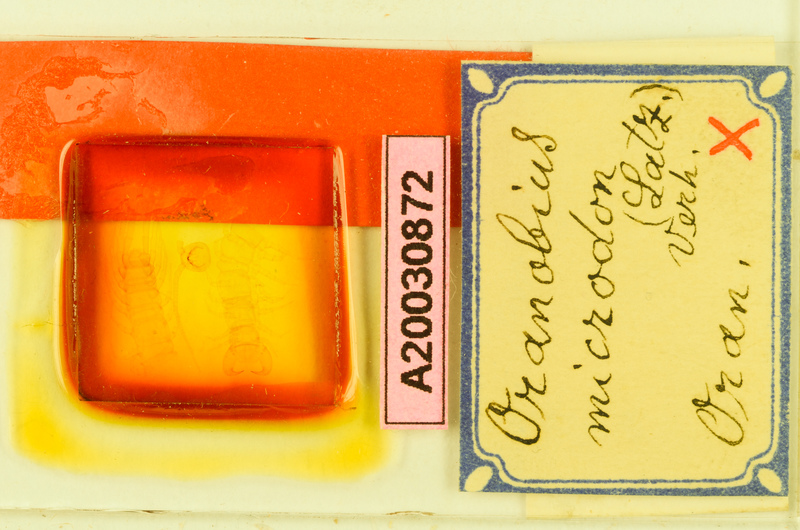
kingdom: Animalia
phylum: Arthropoda
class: Chilopoda
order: Lithobiomorpha
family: Lithobiidae
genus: Lithobius
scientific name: Lithobius
